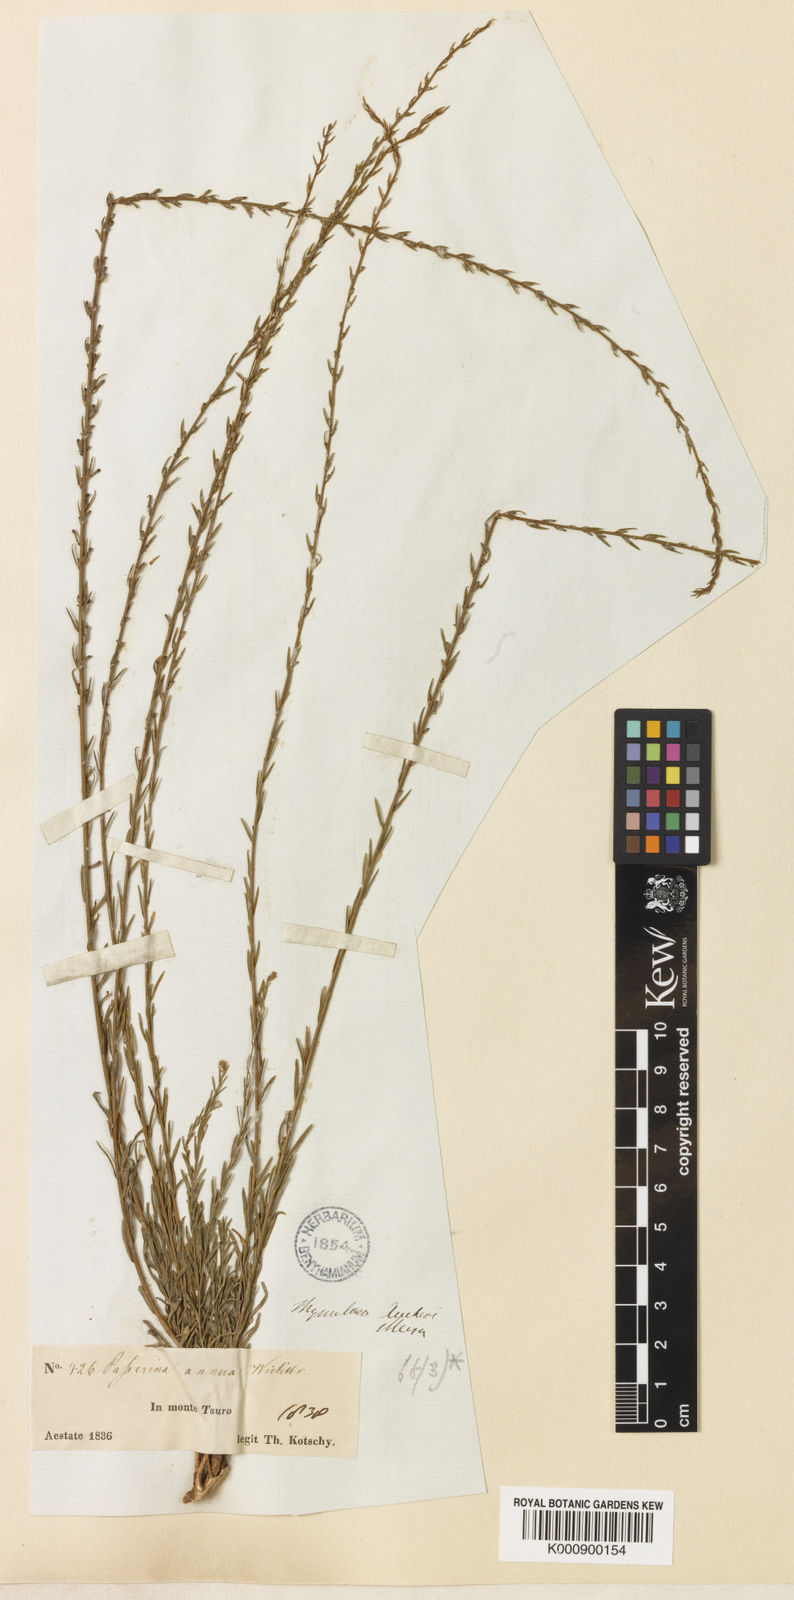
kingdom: Plantae
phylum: Tracheophyta
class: Magnoliopsida
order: Malvales
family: Thymelaeaceae
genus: Wikstroemia
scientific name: Wikstroemia
